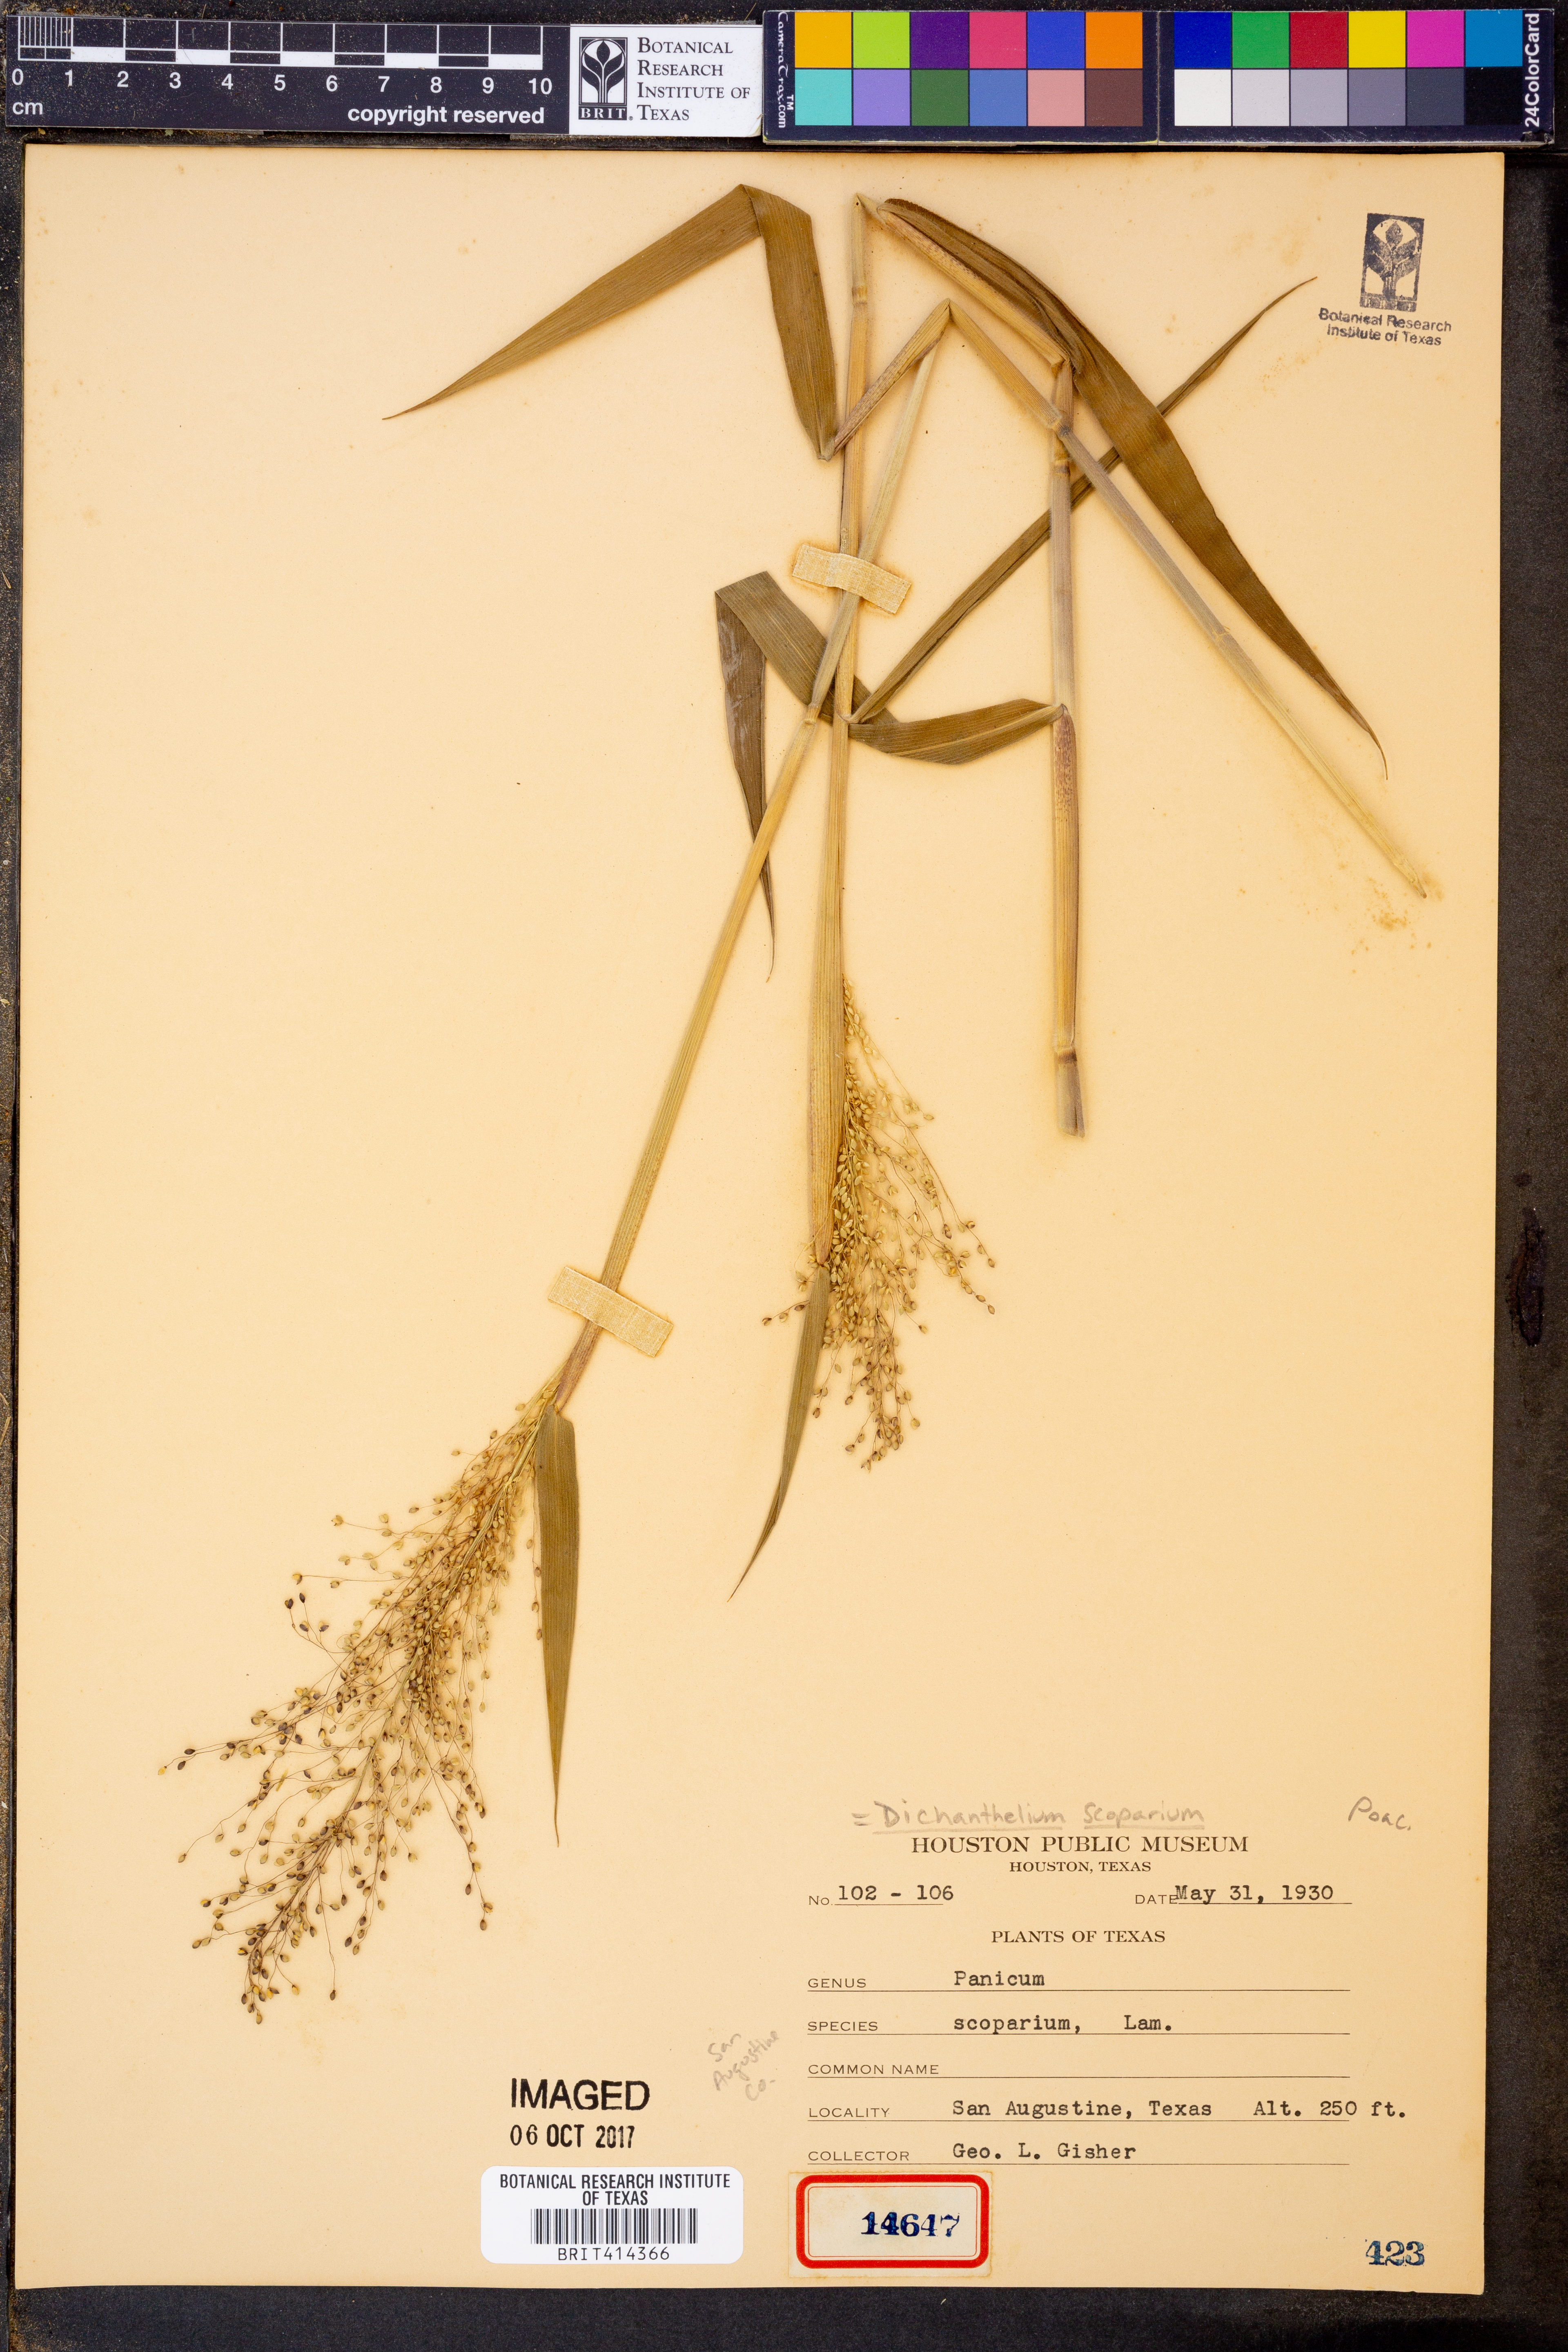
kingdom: Plantae
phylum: Tracheophyta
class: Liliopsida
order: Poales
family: Poaceae
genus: Dichanthelium
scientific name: Dichanthelium scoparium
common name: Velvety panic grass
